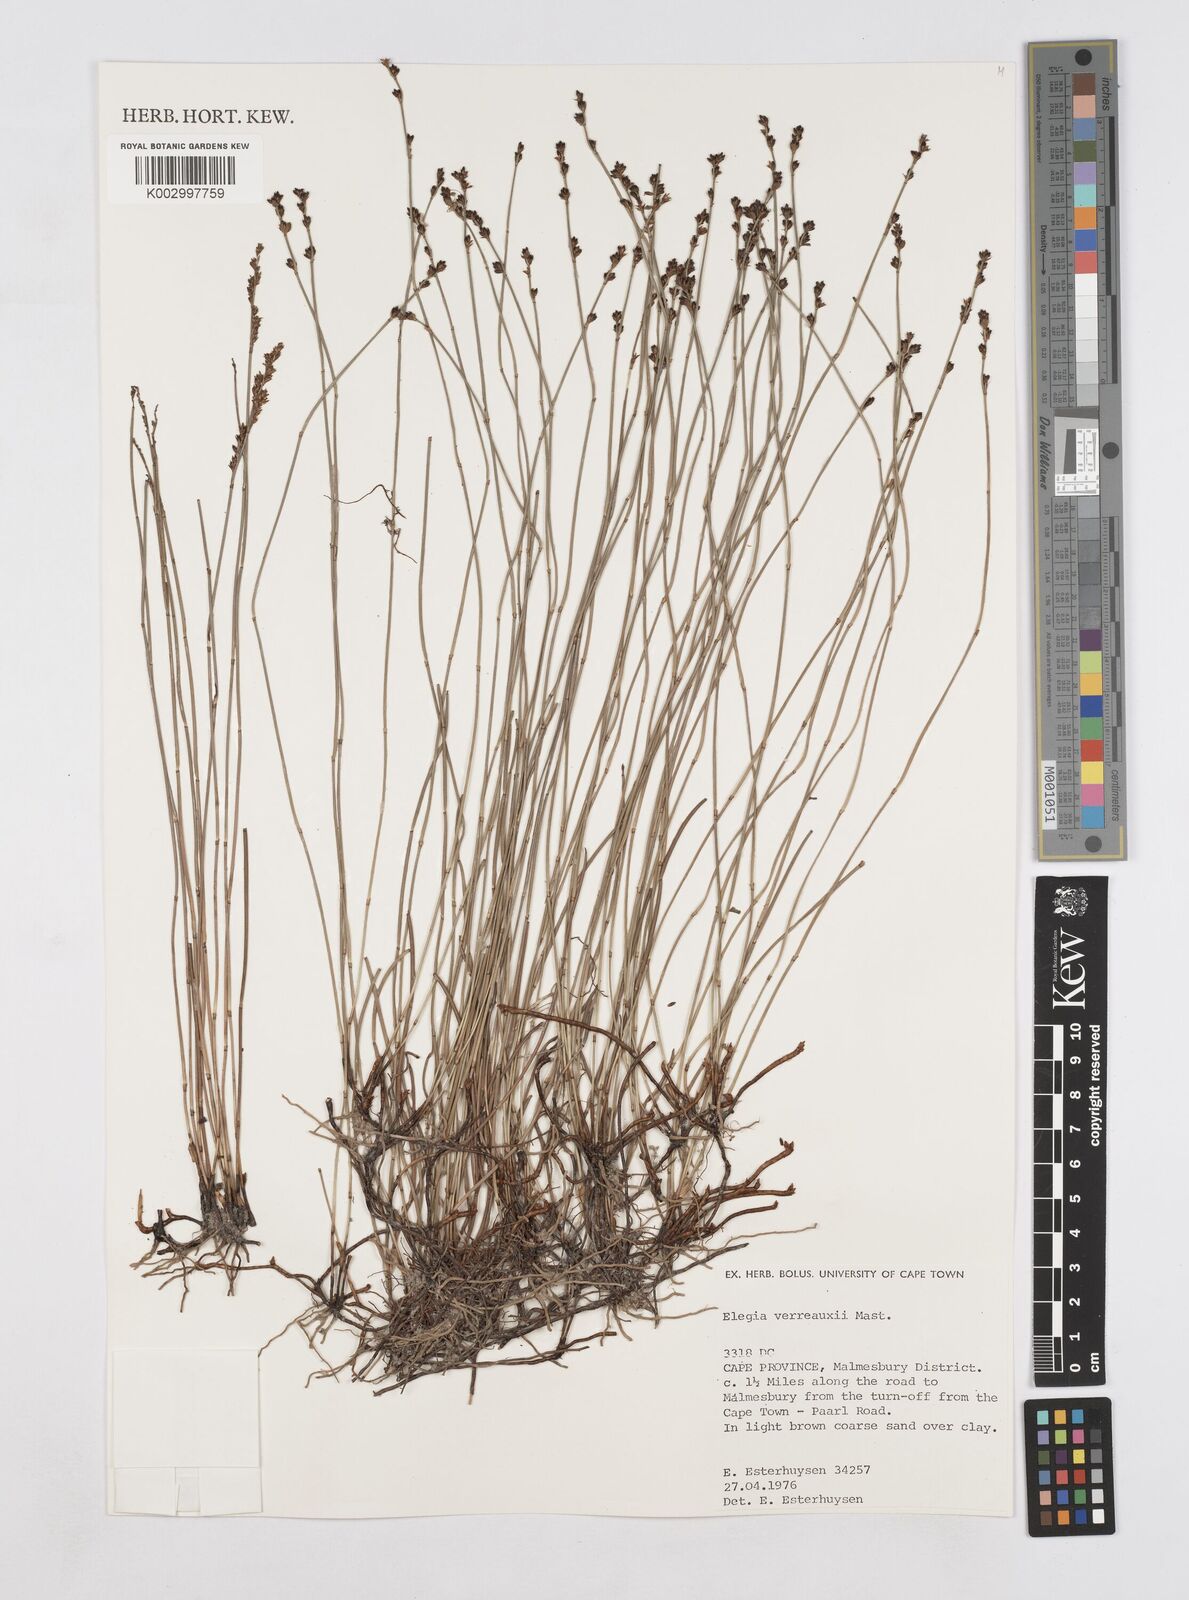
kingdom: Plantae
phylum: Tracheophyta
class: Liliopsida
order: Poales
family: Restionaceae
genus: Elegia
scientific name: Elegia juncea
